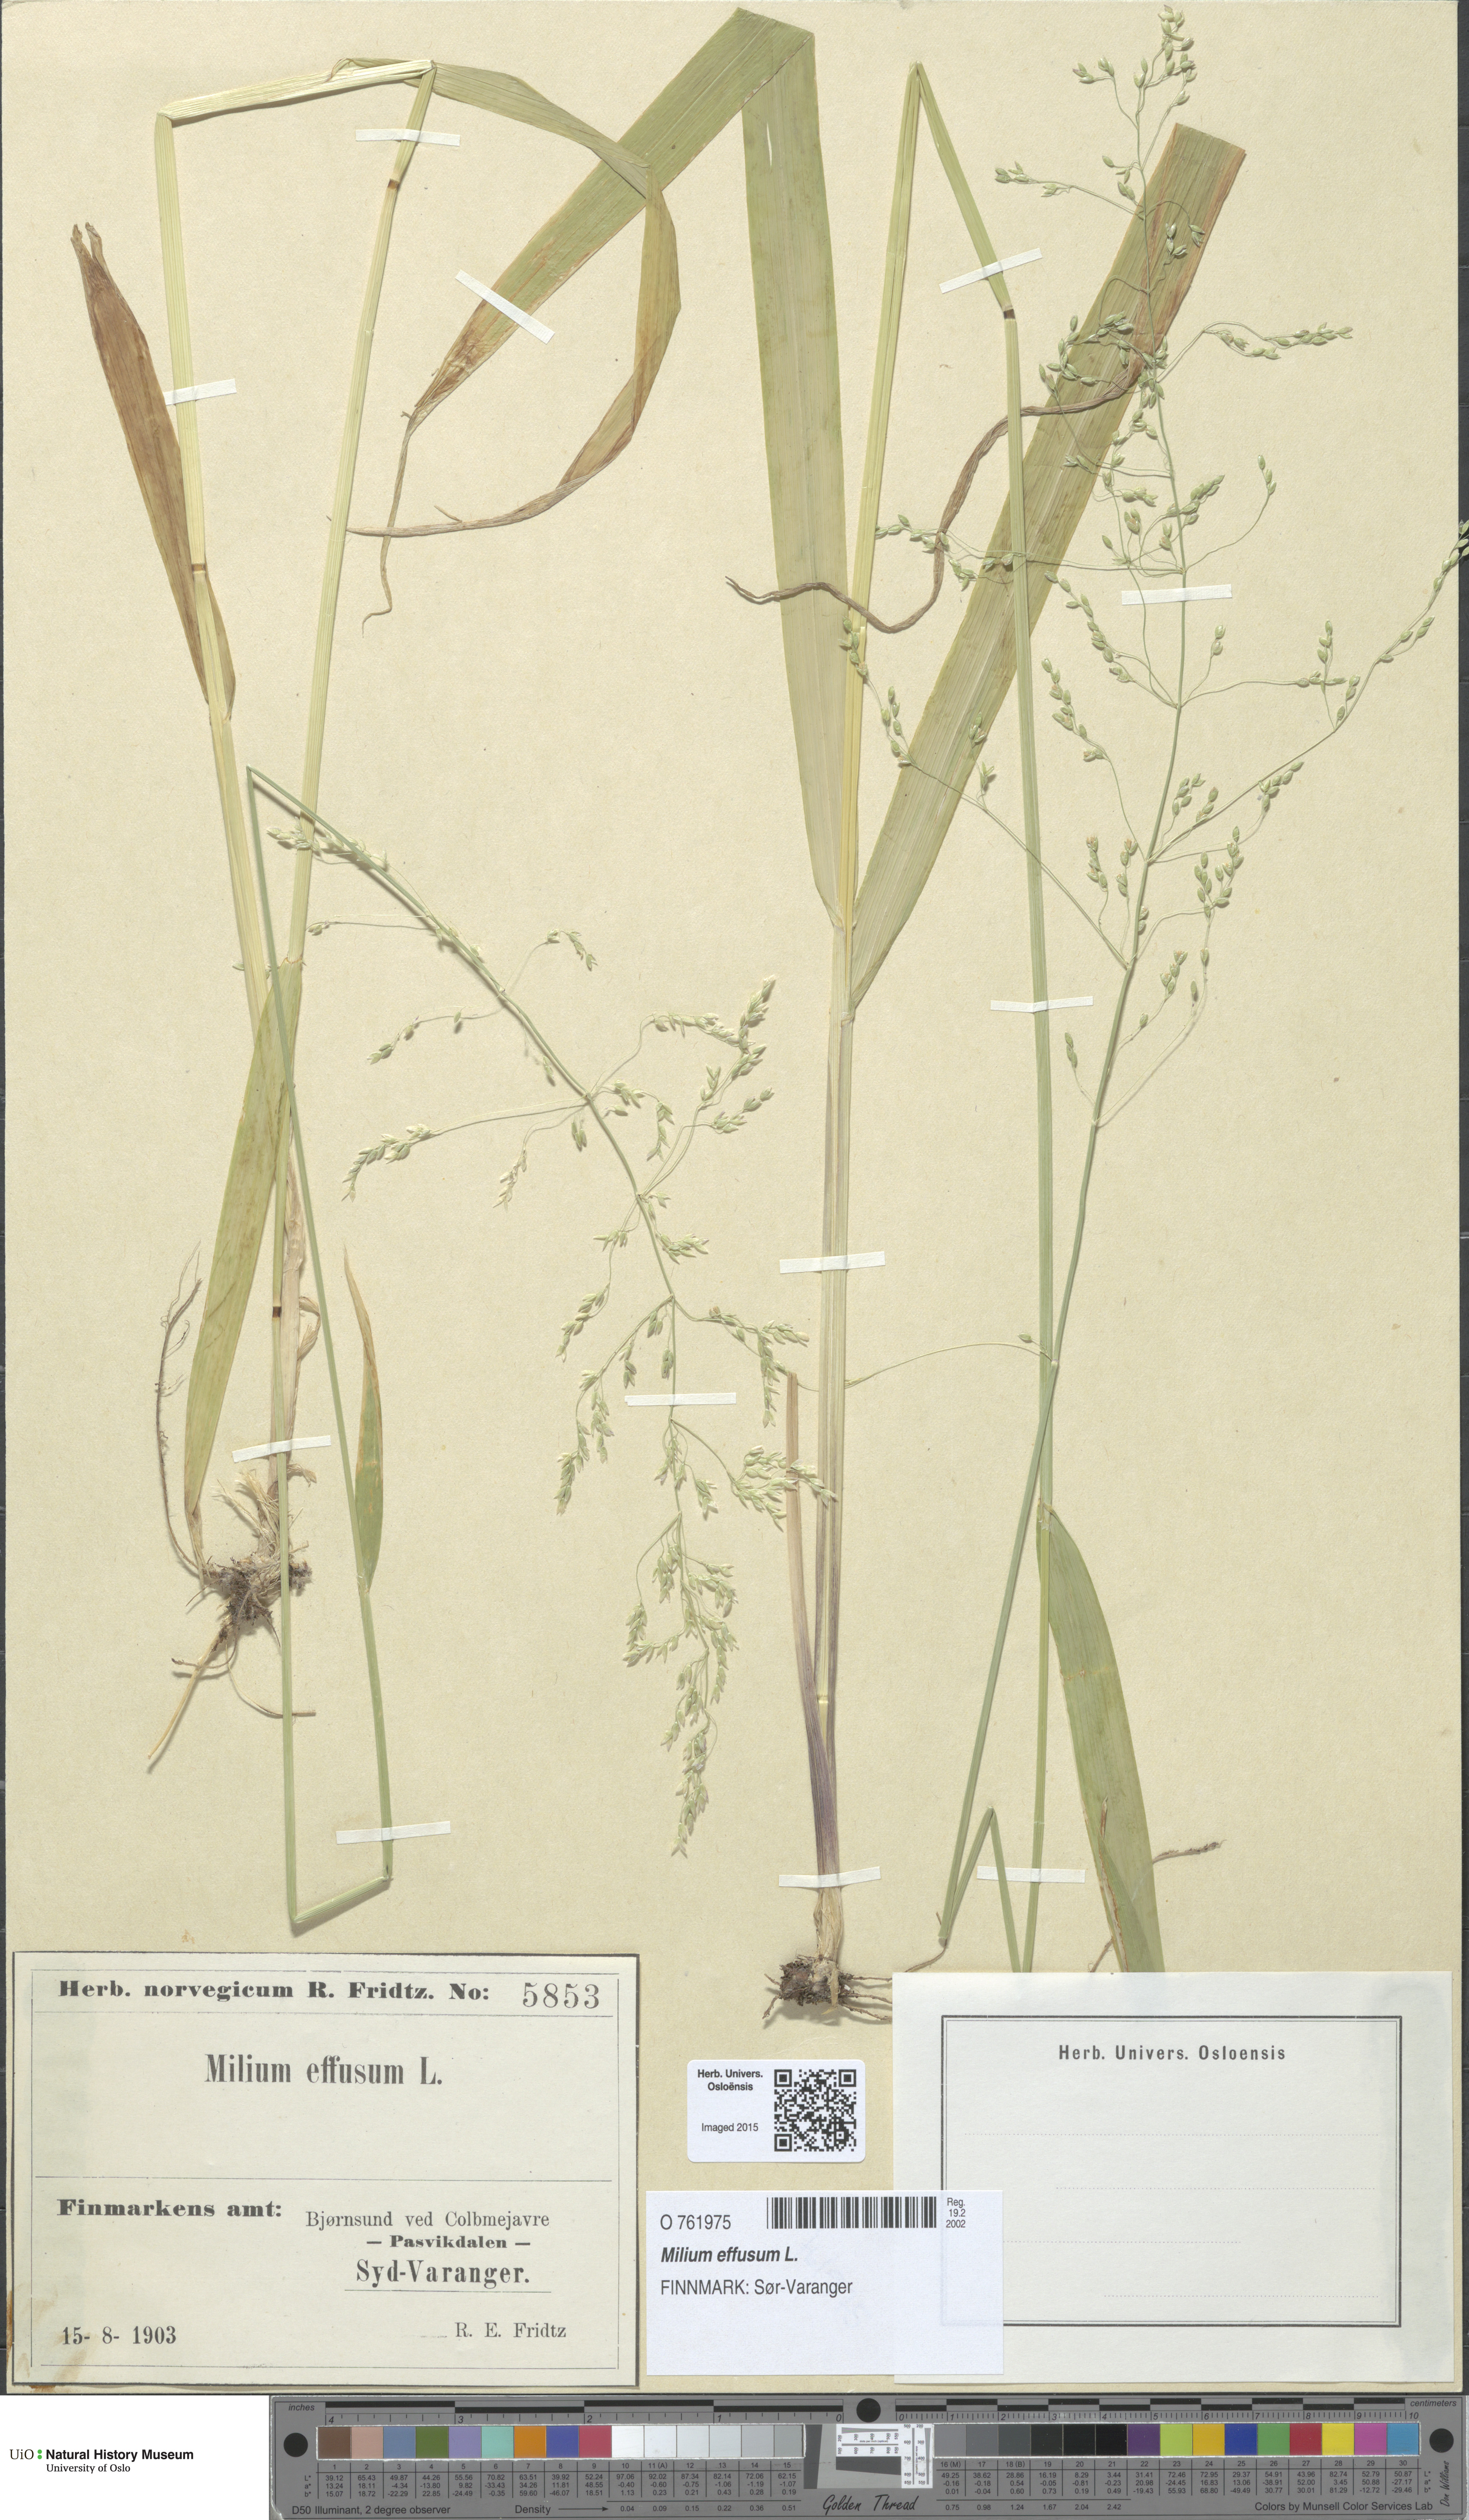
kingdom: Plantae
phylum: Tracheophyta
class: Liliopsida
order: Poales
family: Poaceae
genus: Milium
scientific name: Milium effusum
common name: Wood millet
